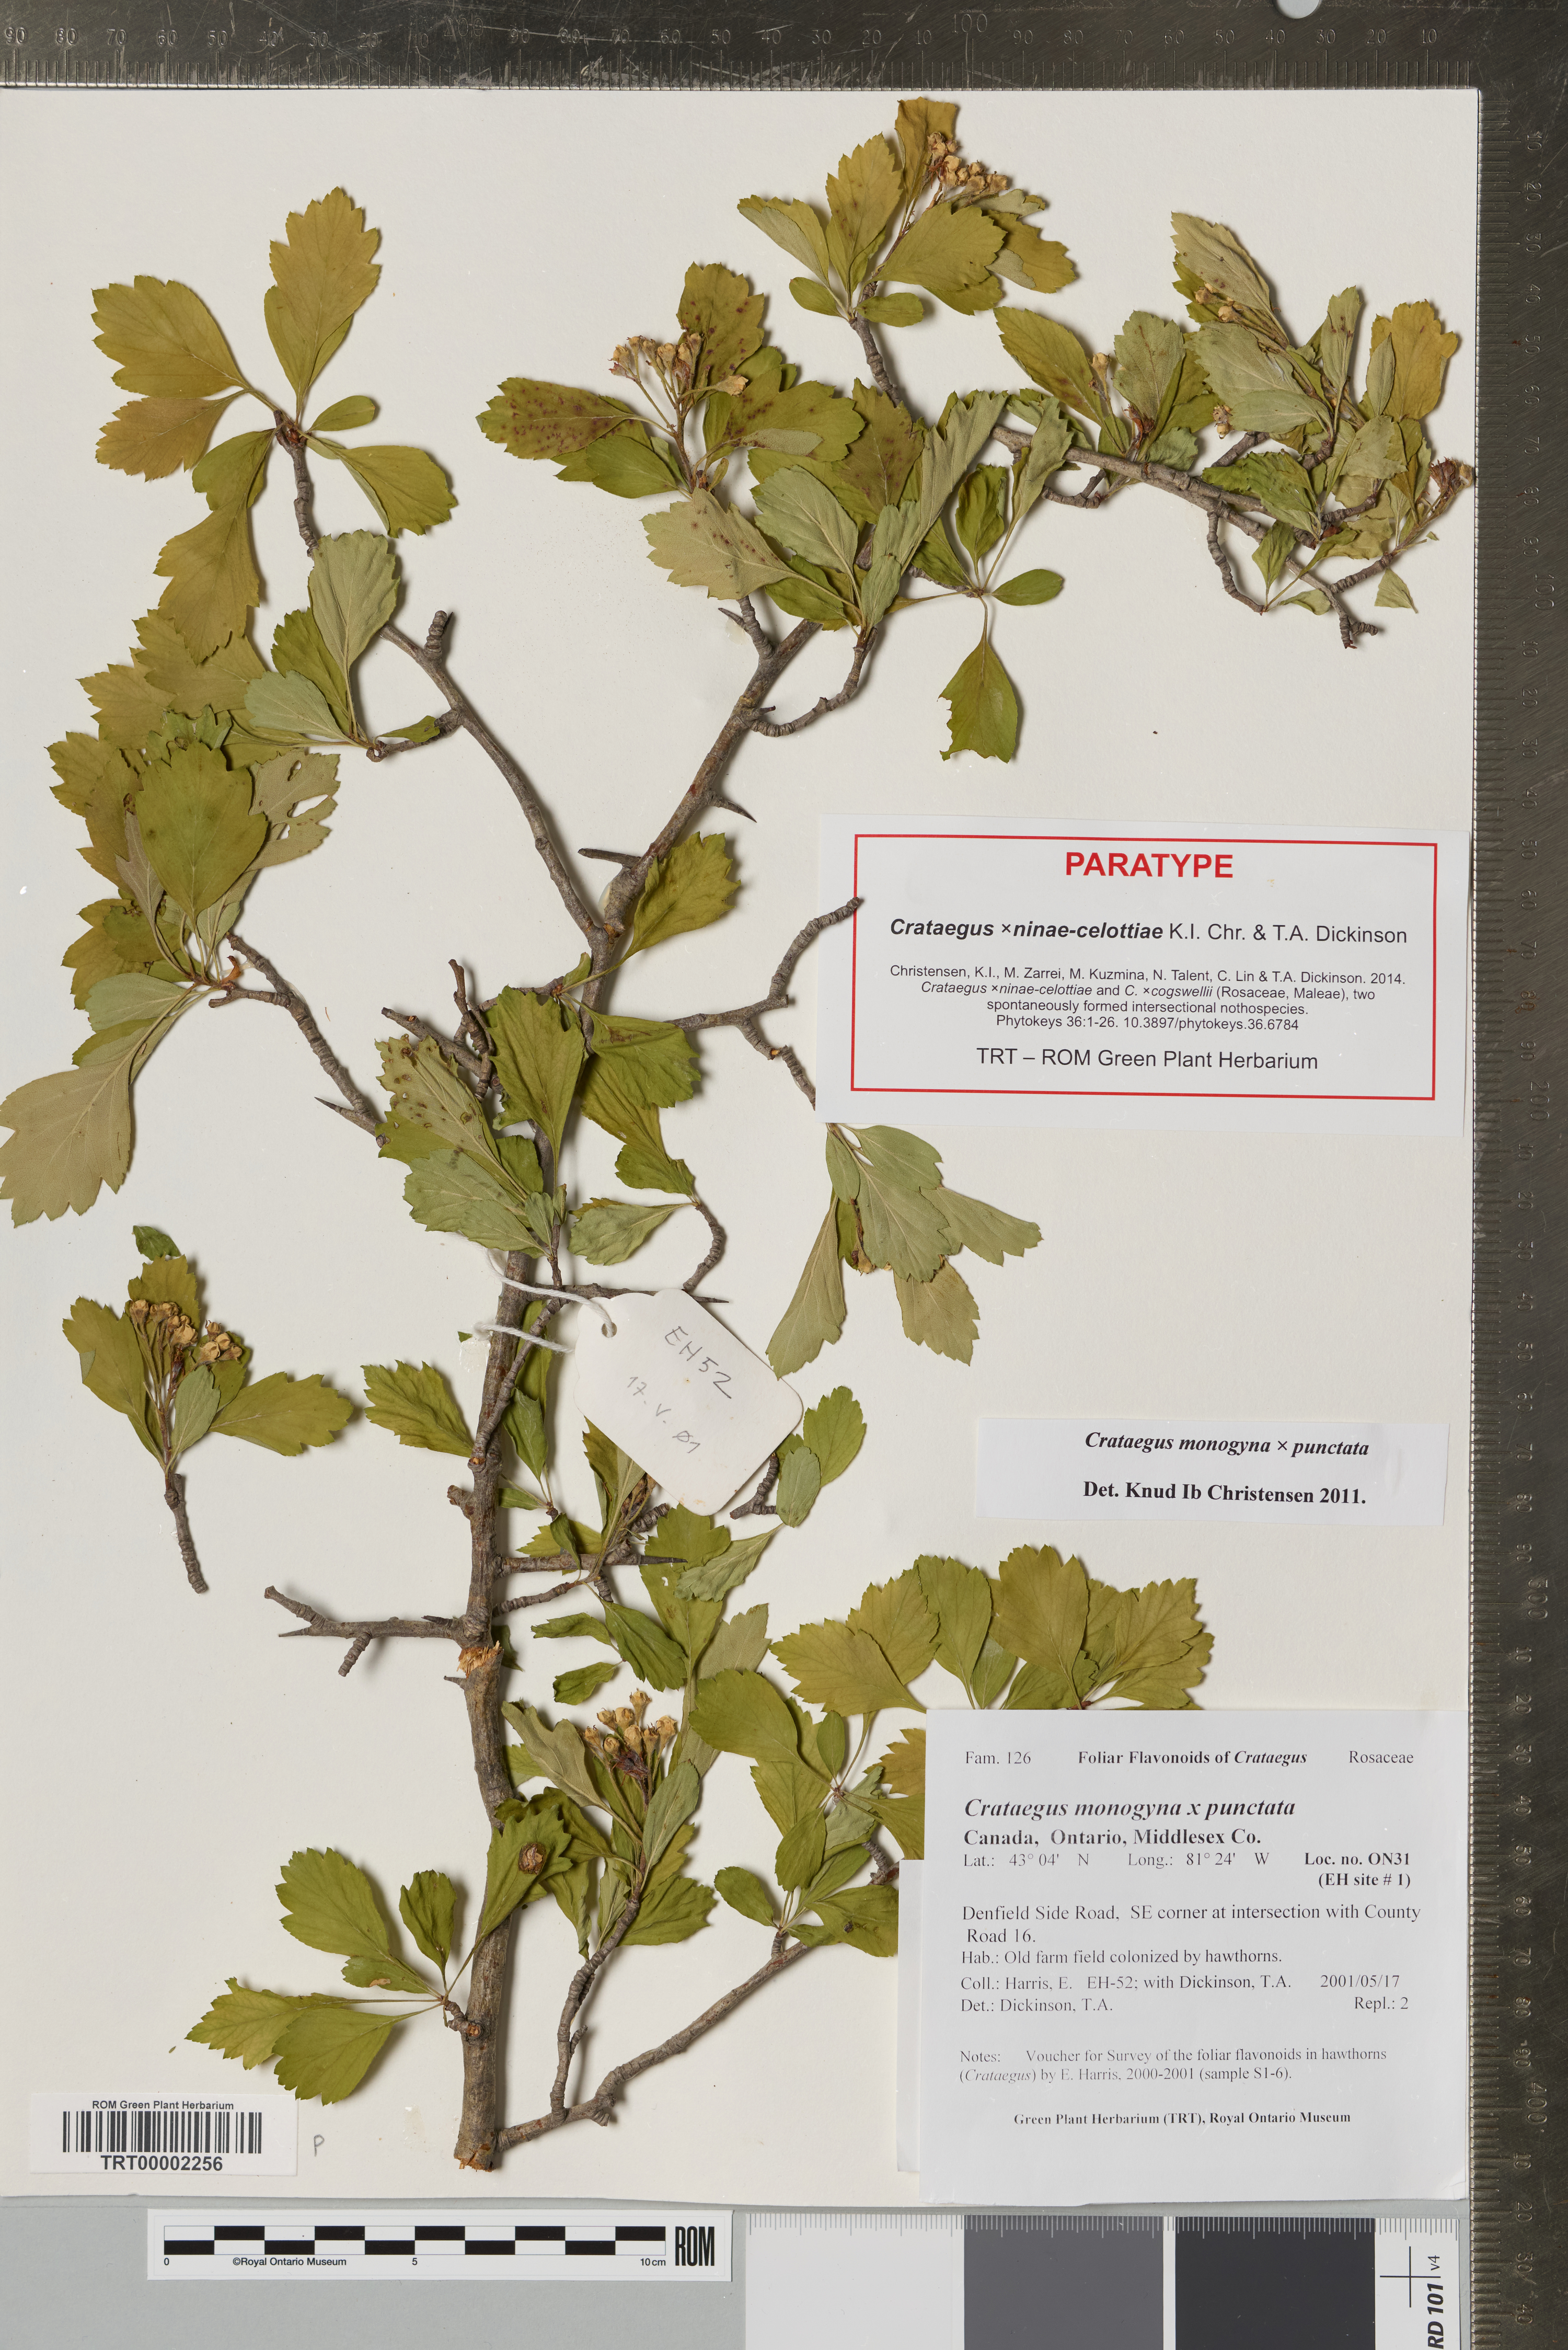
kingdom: Plantae
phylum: Tracheophyta
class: Magnoliopsida
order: Rosales
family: Rosaceae
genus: Crataegus
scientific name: Crataegus
